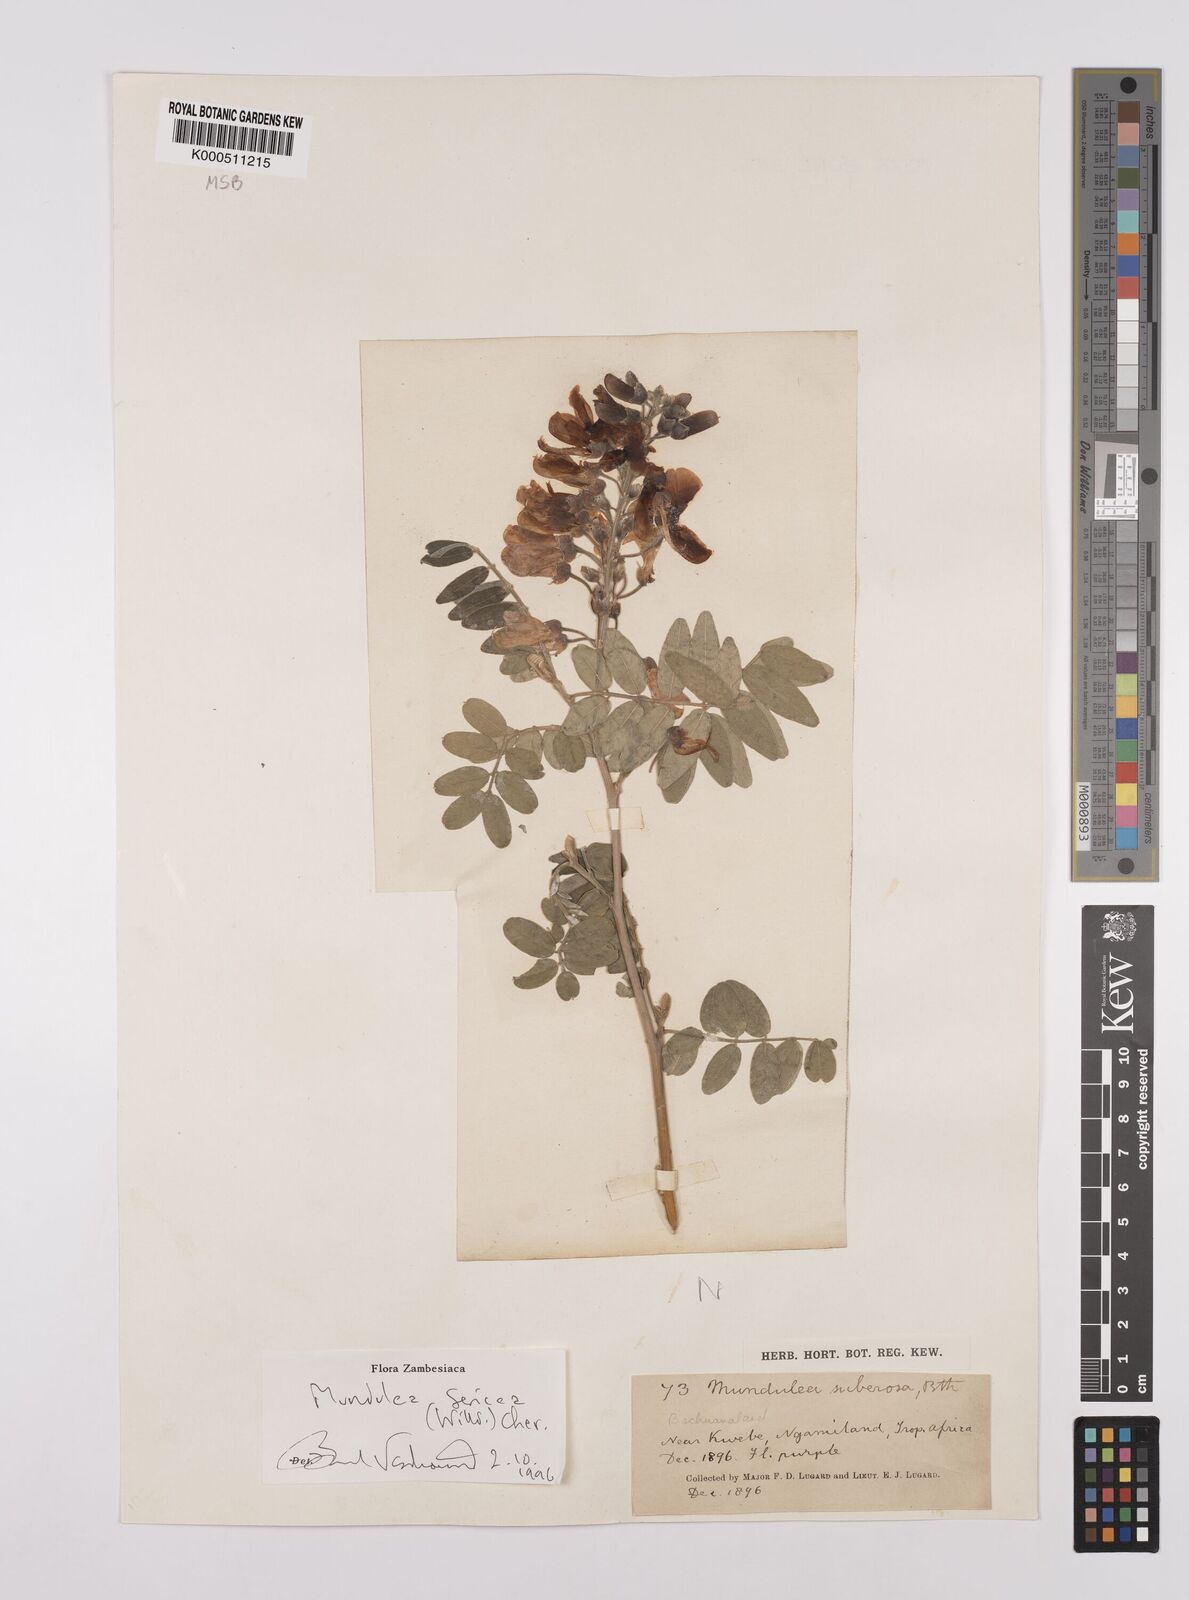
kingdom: Plantae
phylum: Tracheophyta
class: Magnoliopsida
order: Fabales
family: Fabaceae
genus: Mundulea
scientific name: Mundulea sericea
